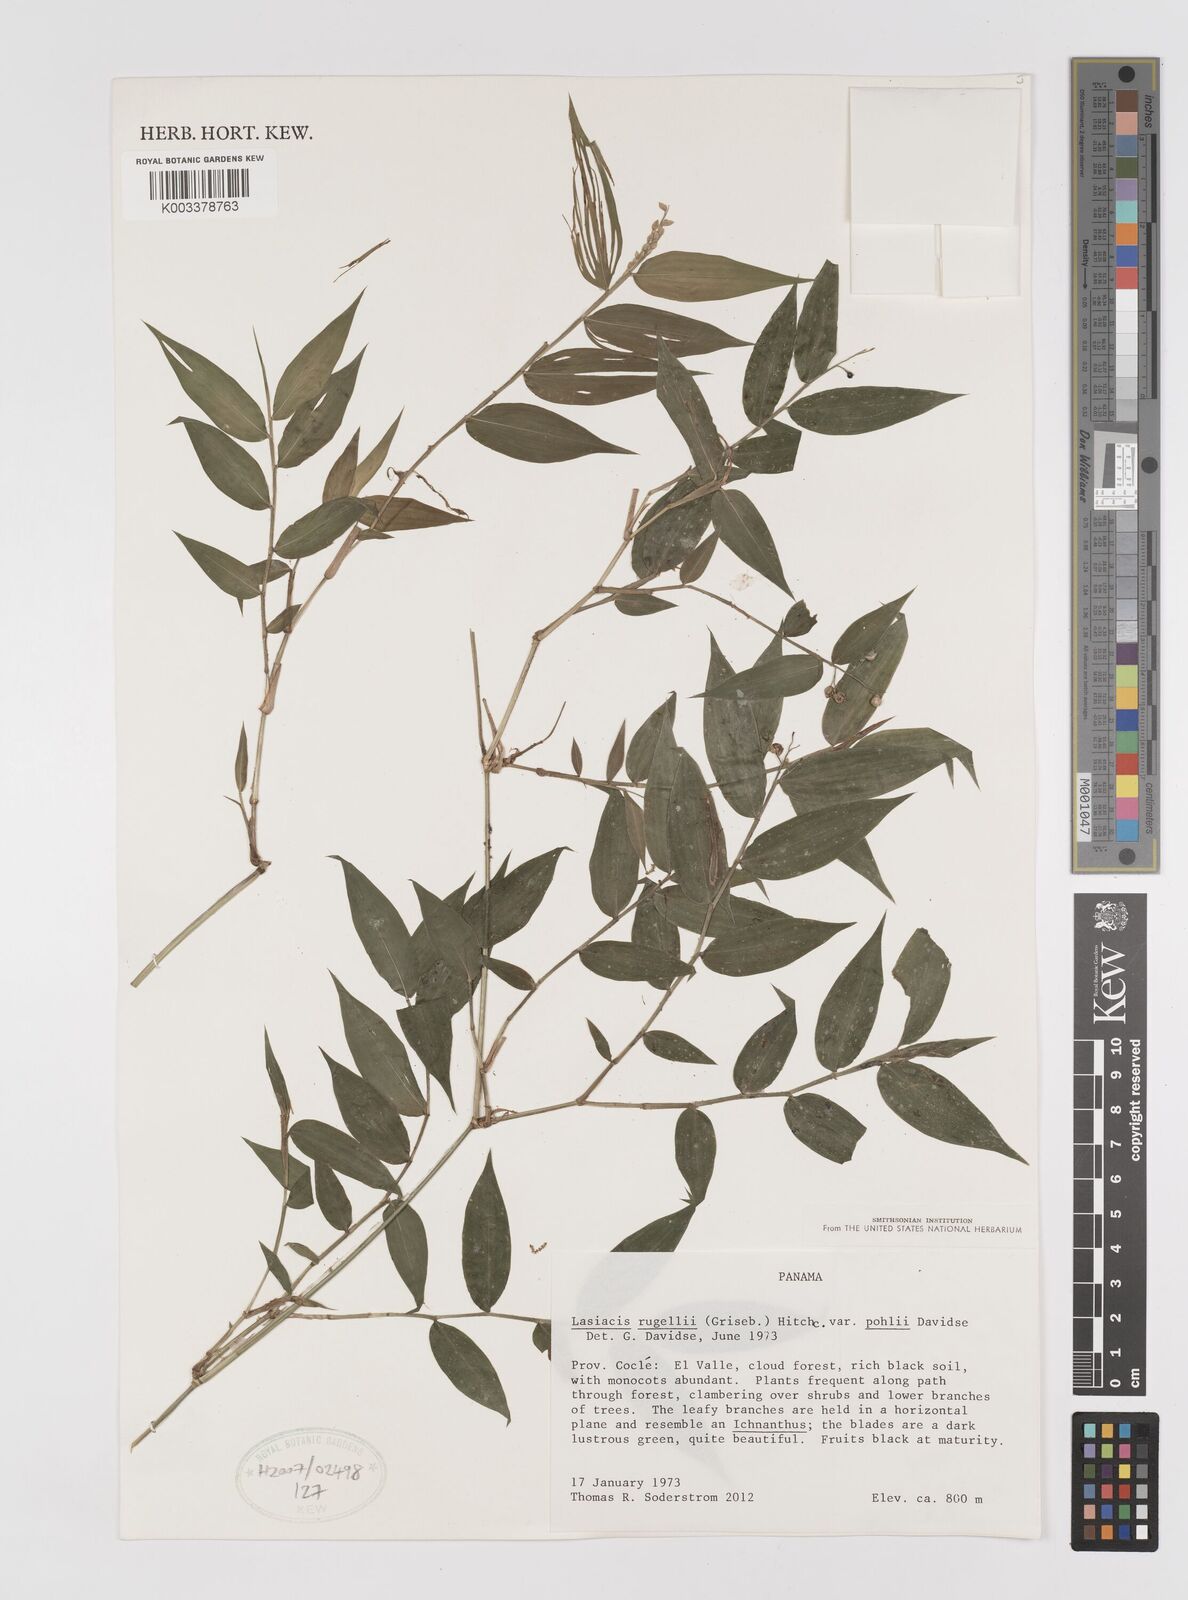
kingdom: Plantae
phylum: Tracheophyta
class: Liliopsida
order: Poales
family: Poaceae
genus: Lasiacis
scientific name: Lasiacis rugelii
